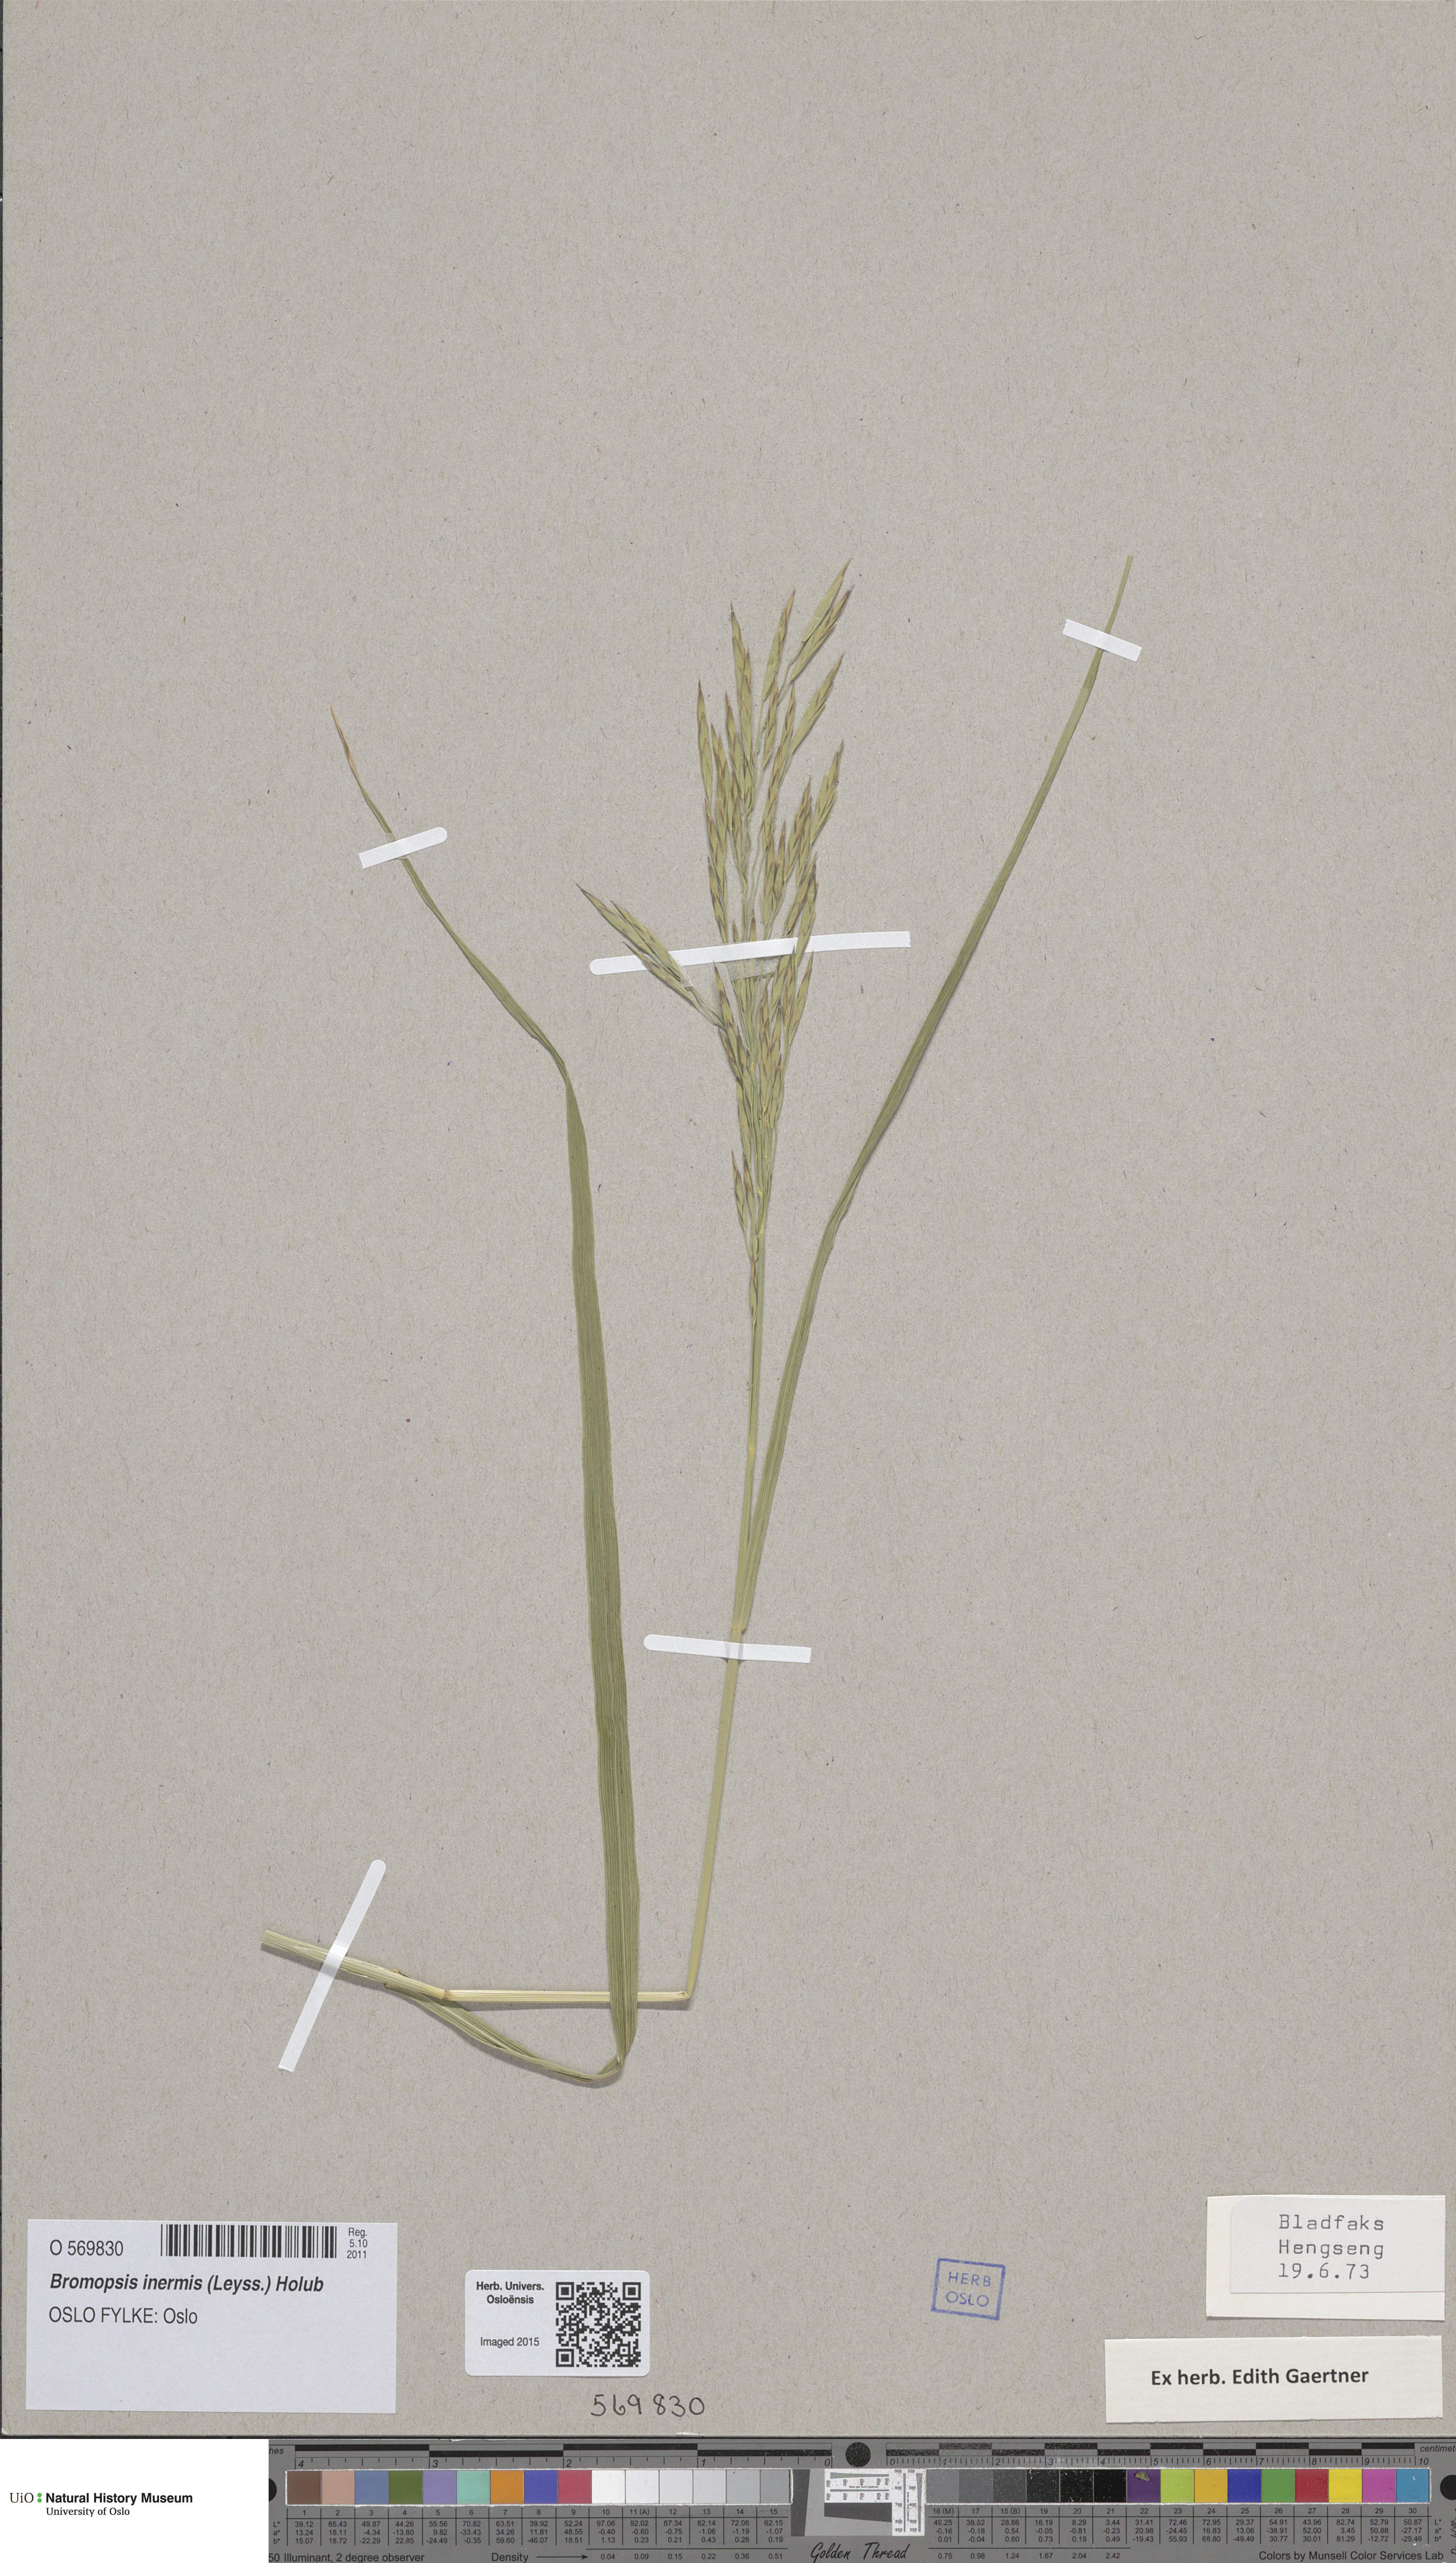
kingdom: Plantae
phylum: Tracheophyta
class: Liliopsida
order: Poales
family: Poaceae
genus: Bromus
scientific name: Bromus inermis
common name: Smooth brome
